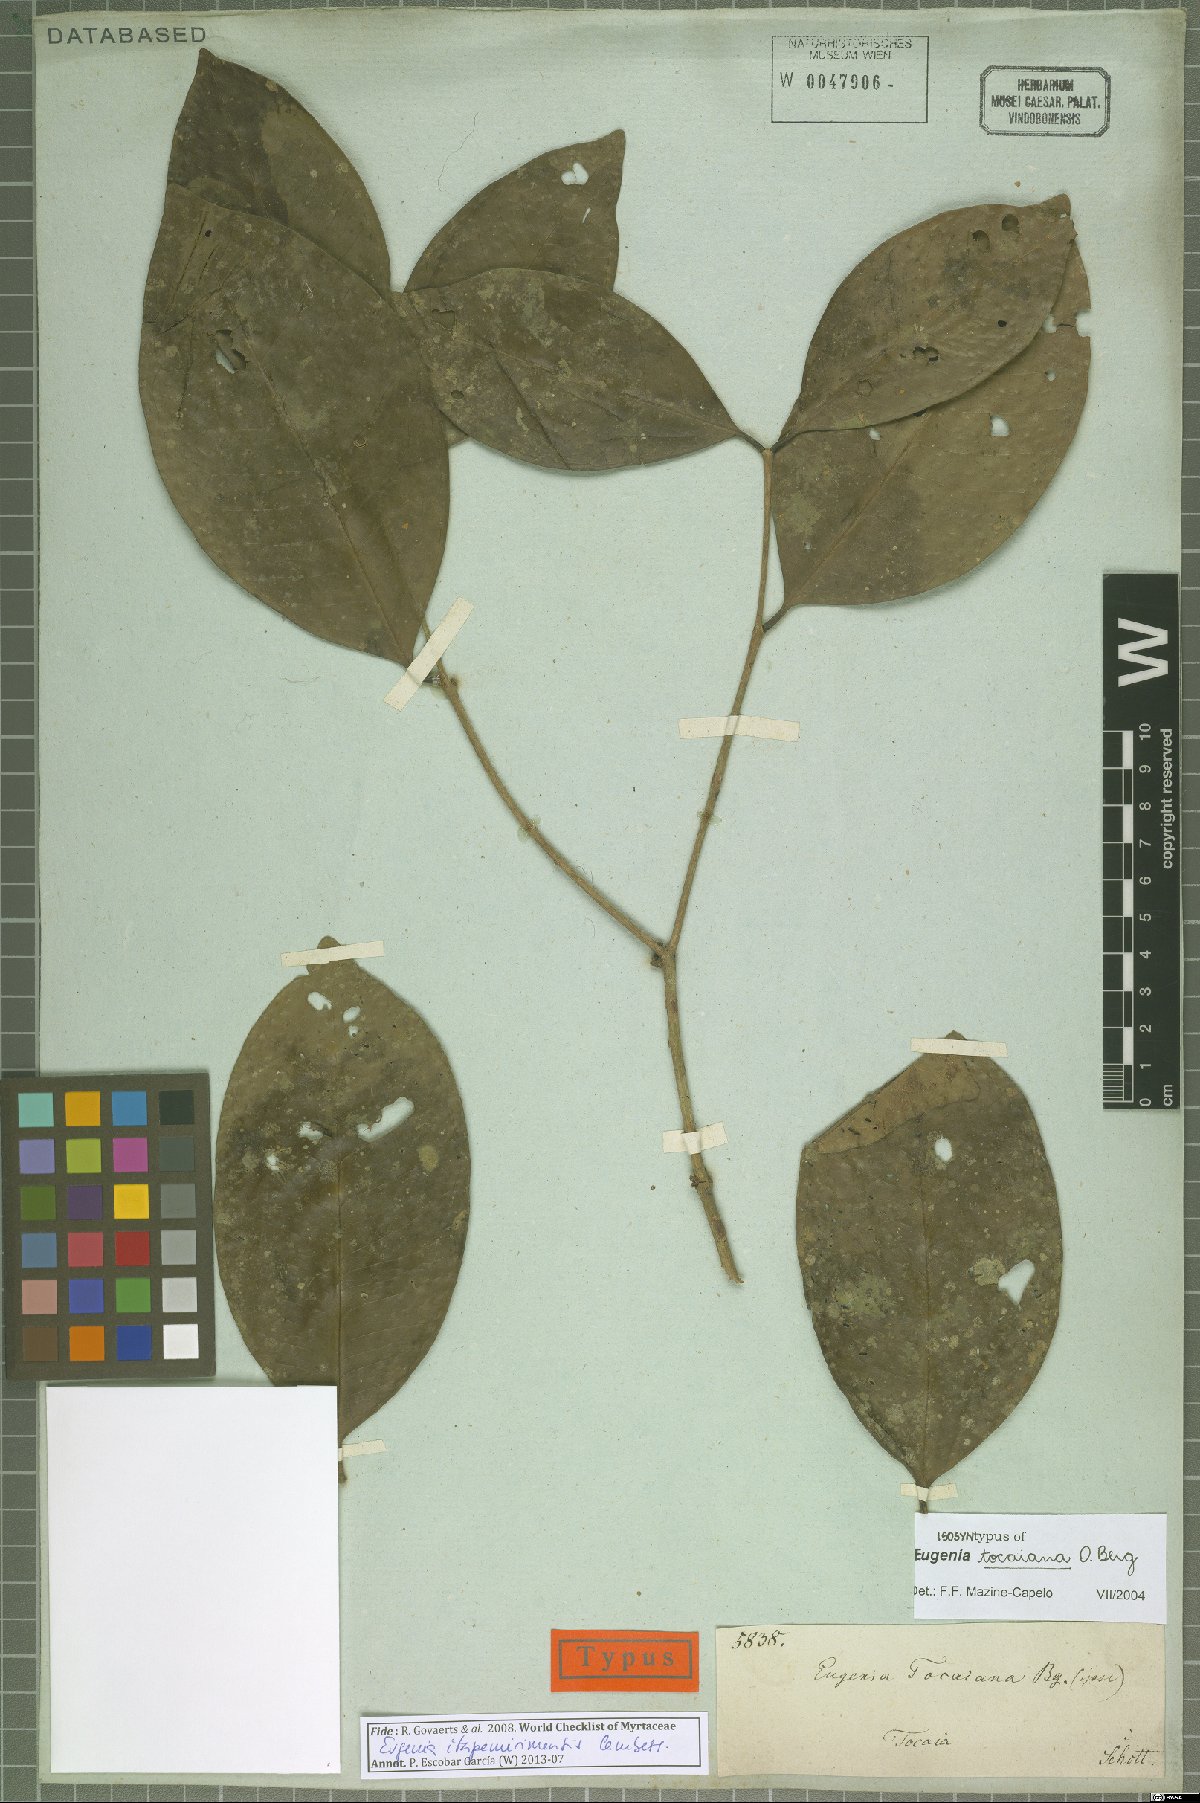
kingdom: Plantae
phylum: Tracheophyta
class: Magnoliopsida
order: Myrtales
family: Myrtaceae
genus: Eugenia
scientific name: Eugenia itapemirimensis
